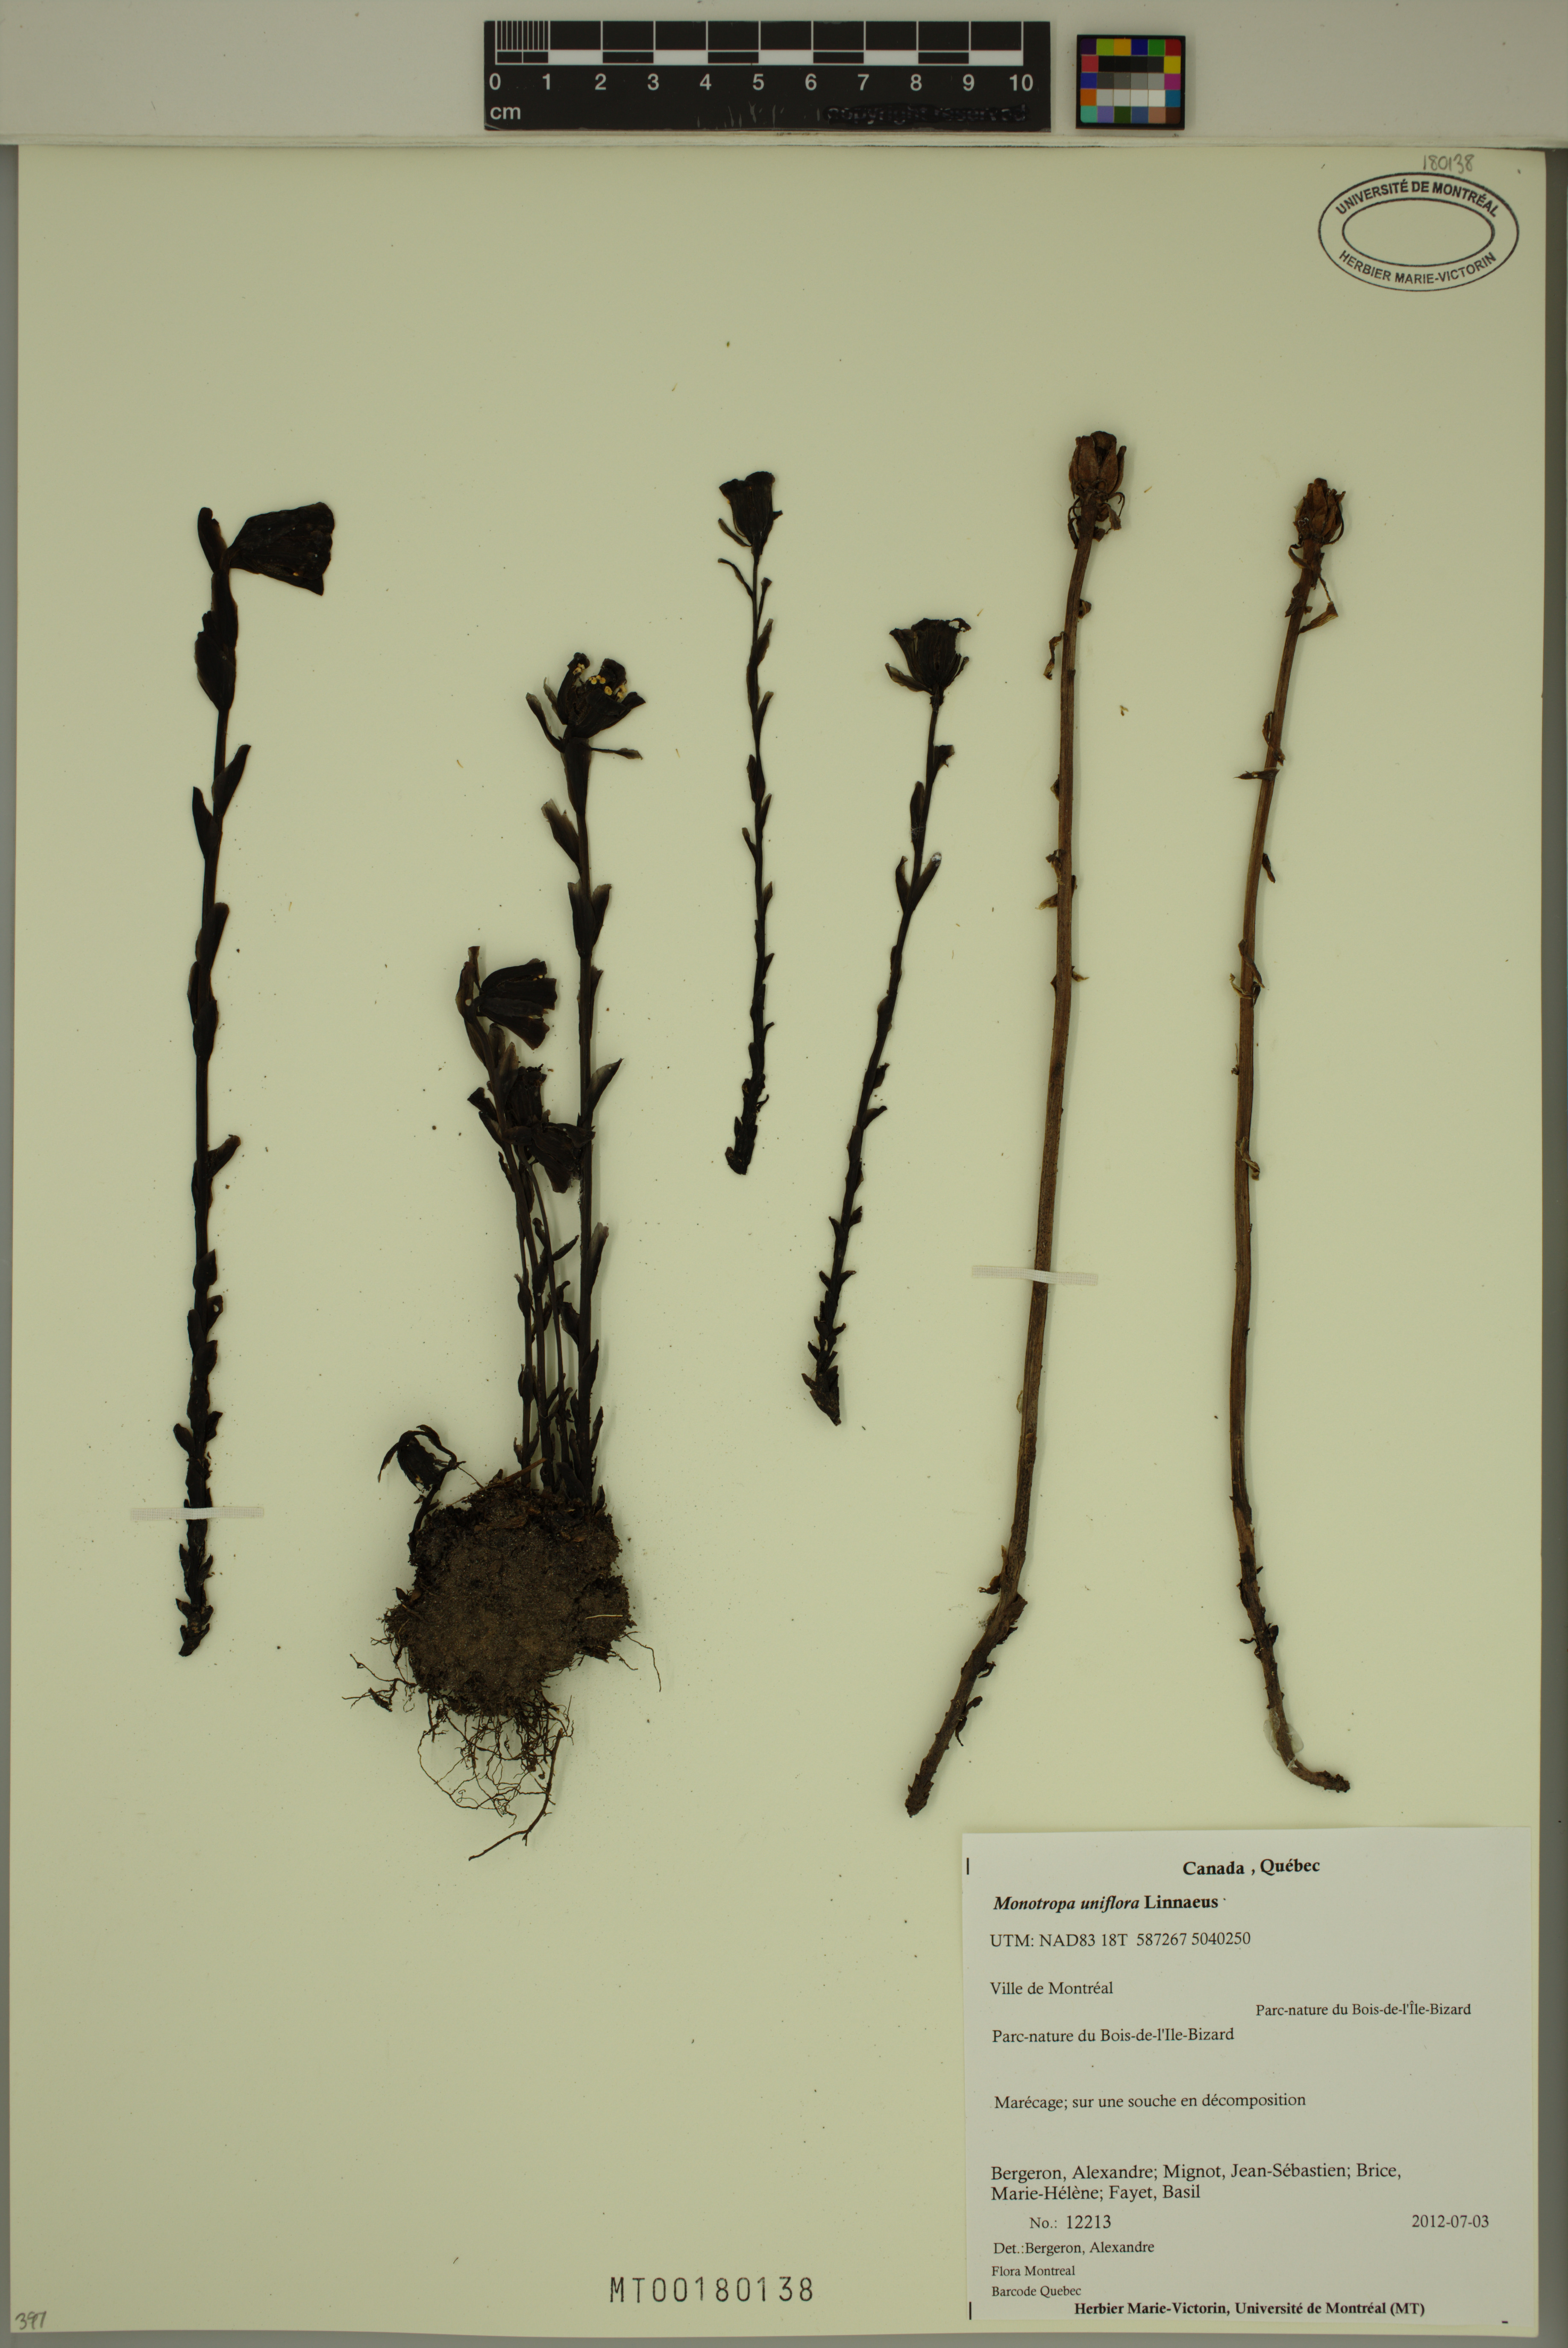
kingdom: Plantae
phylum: Tracheophyta
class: Magnoliopsida
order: Ericales
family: Ericaceae
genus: Monotropa
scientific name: Monotropa uniflora
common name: Convulsion root
